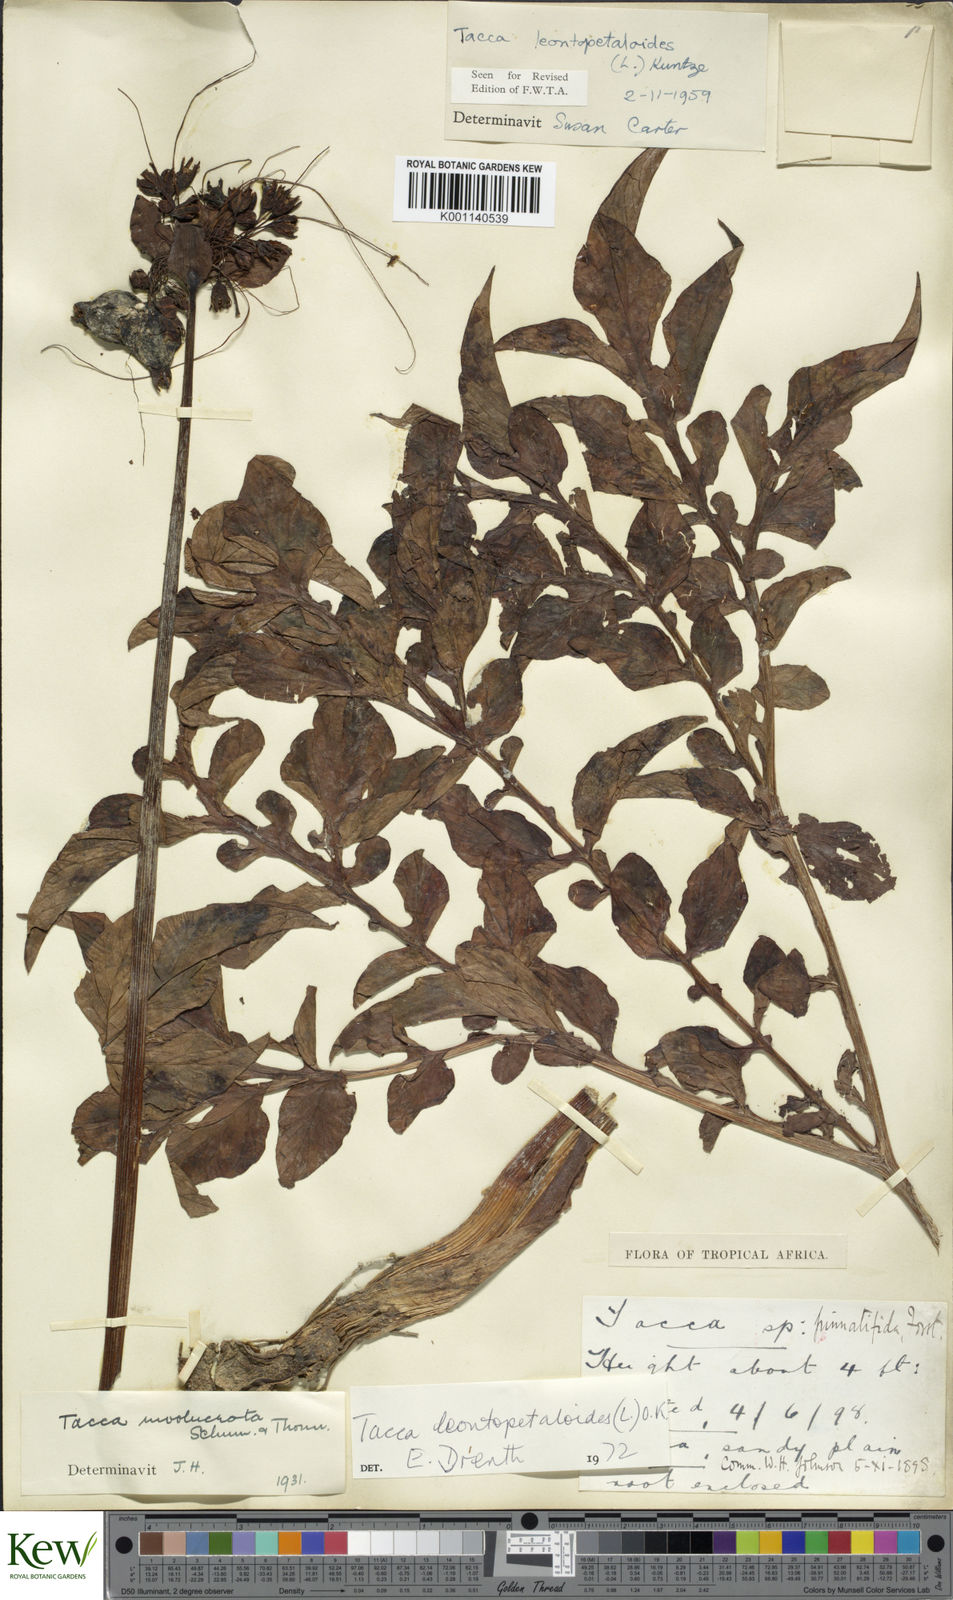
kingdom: Plantae
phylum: Tracheophyta
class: Liliopsida
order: Dioscoreales
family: Dioscoreaceae
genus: Tacca
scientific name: Tacca leontopetaloides
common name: Arrowroot
